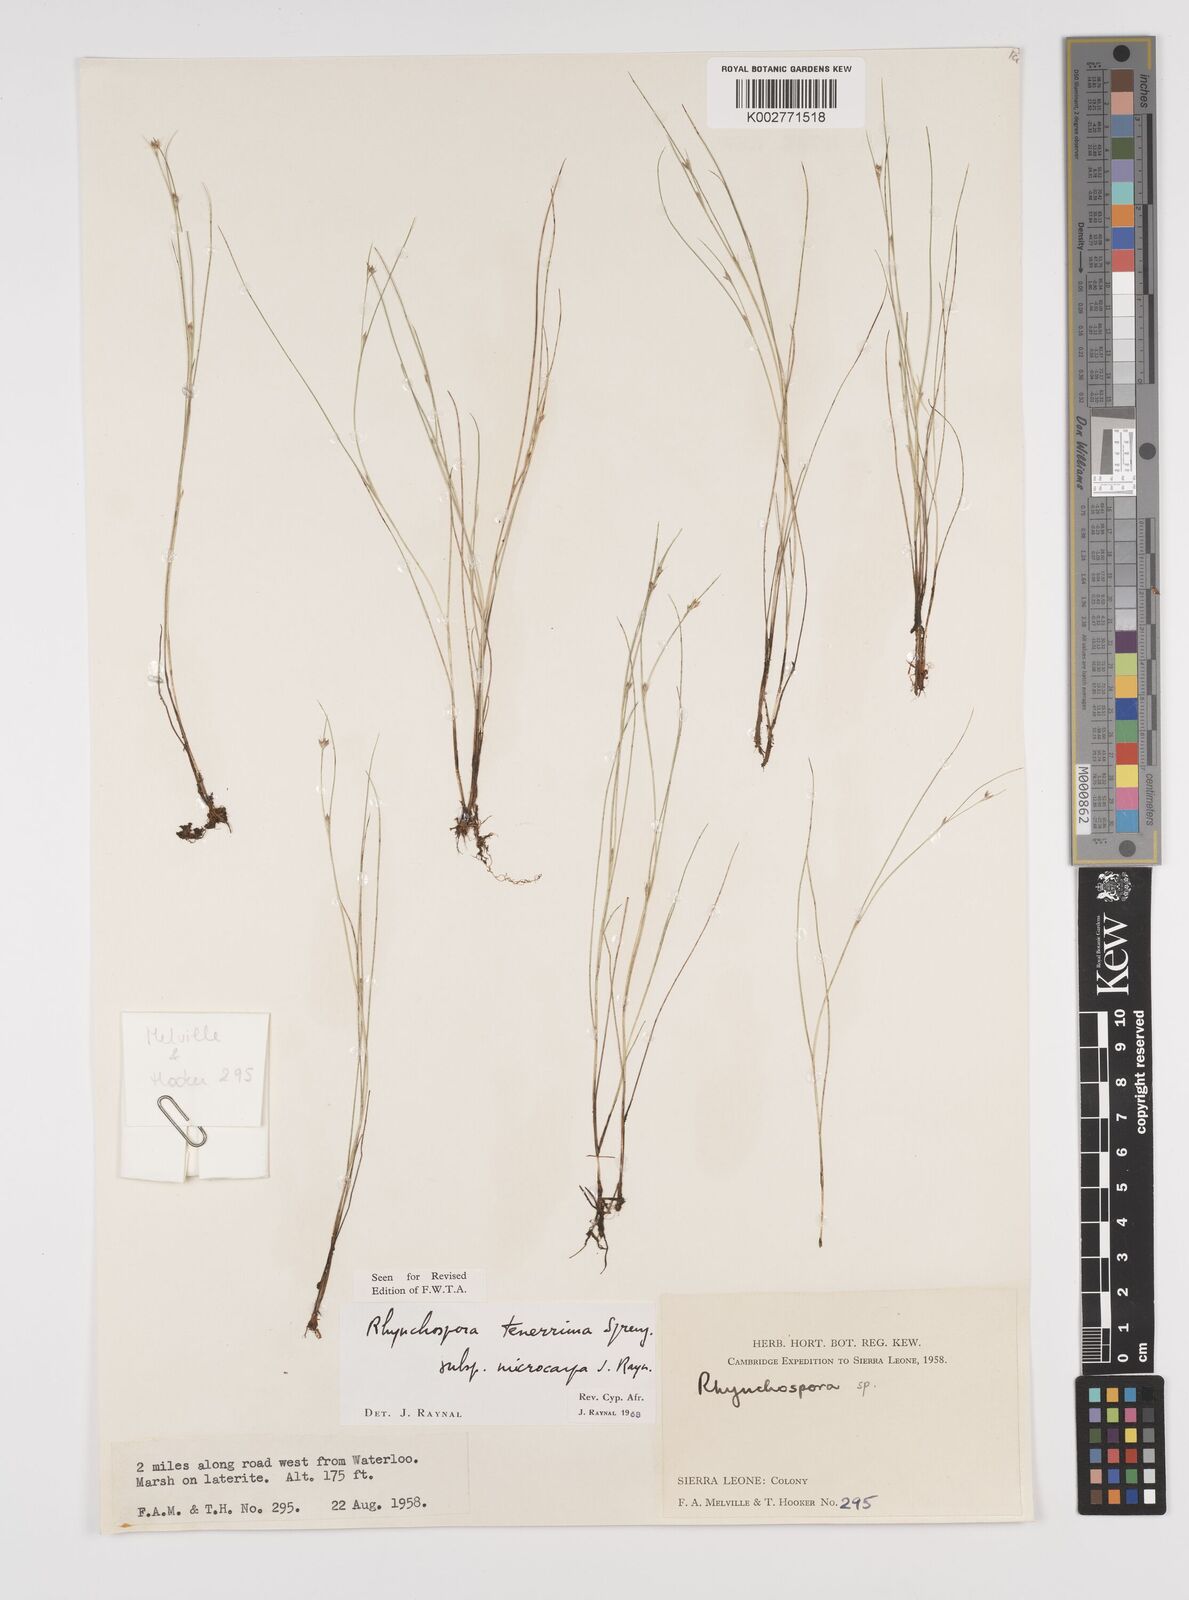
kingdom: Plantae
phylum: Tracheophyta
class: Liliopsida
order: Poales
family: Cyperaceae
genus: Rhynchospora
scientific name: Rhynchospora tenerrima
